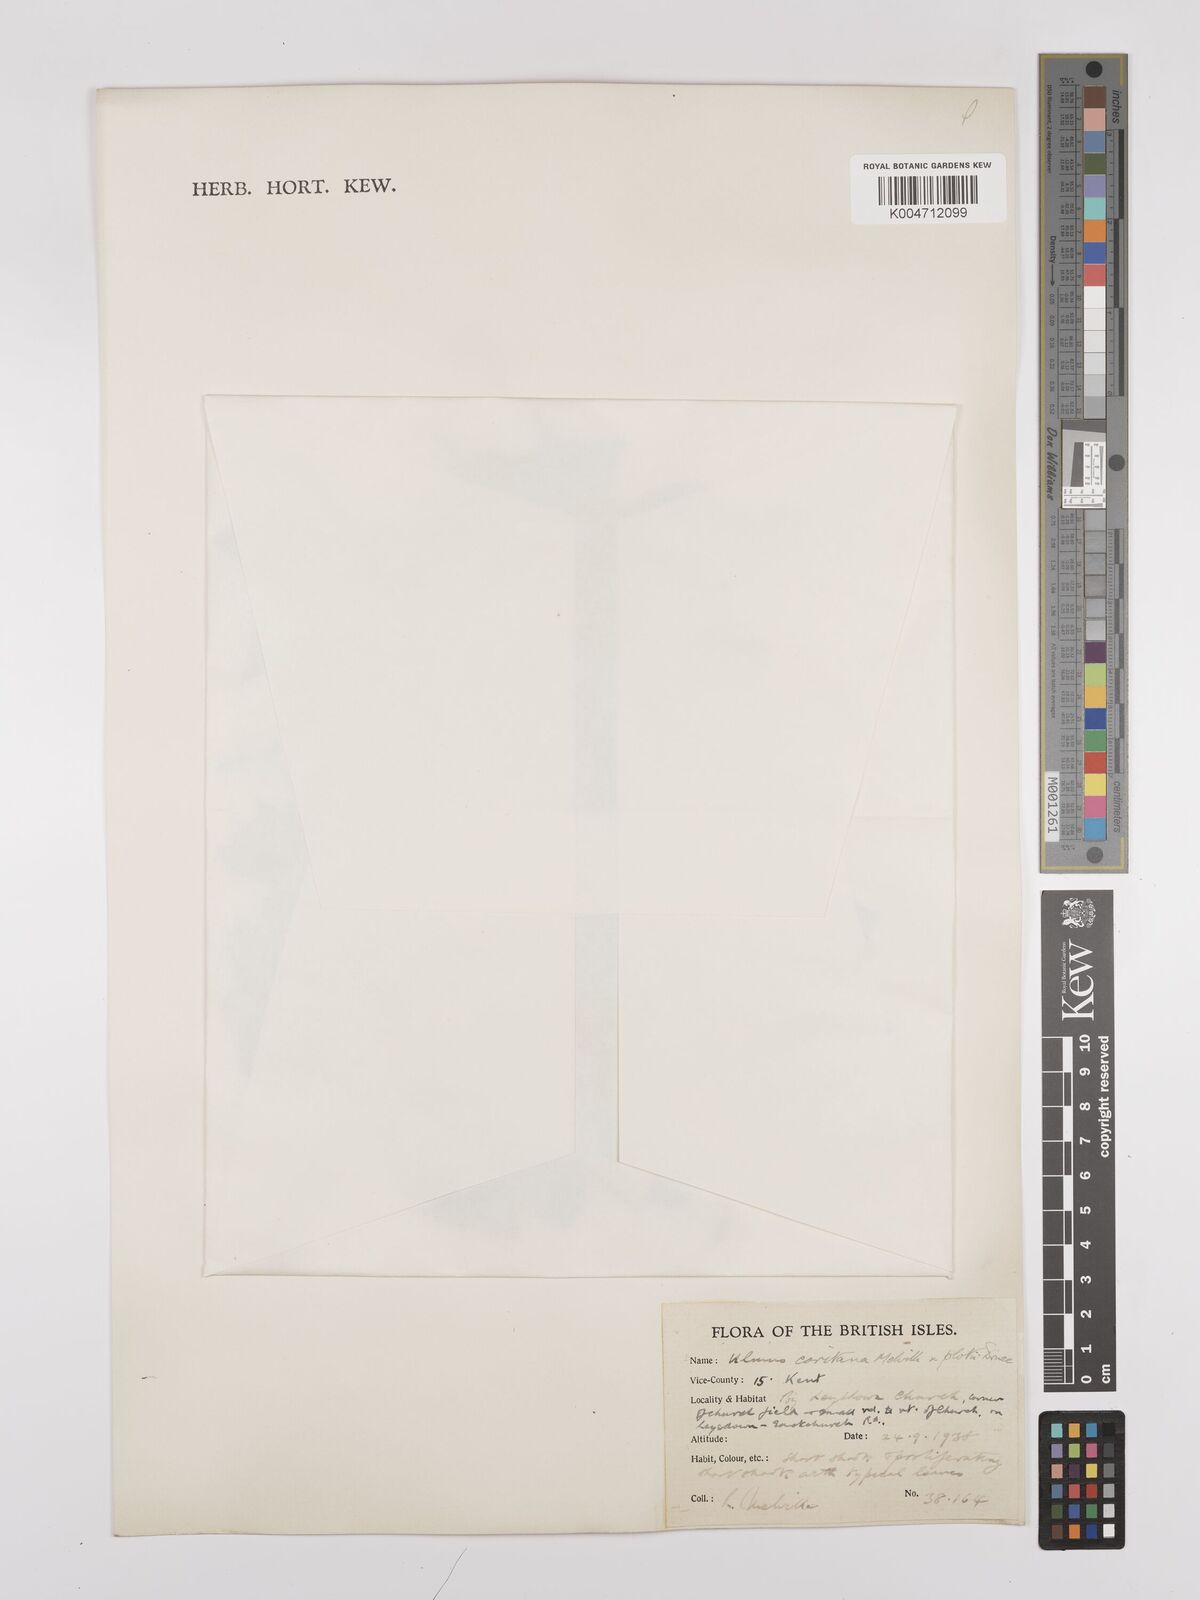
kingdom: Plantae
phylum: Tracheophyta
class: Magnoliopsida
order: Rosales
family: Ulmaceae
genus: Ulmus
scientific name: Ulmus minor
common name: Small-leaved elm
